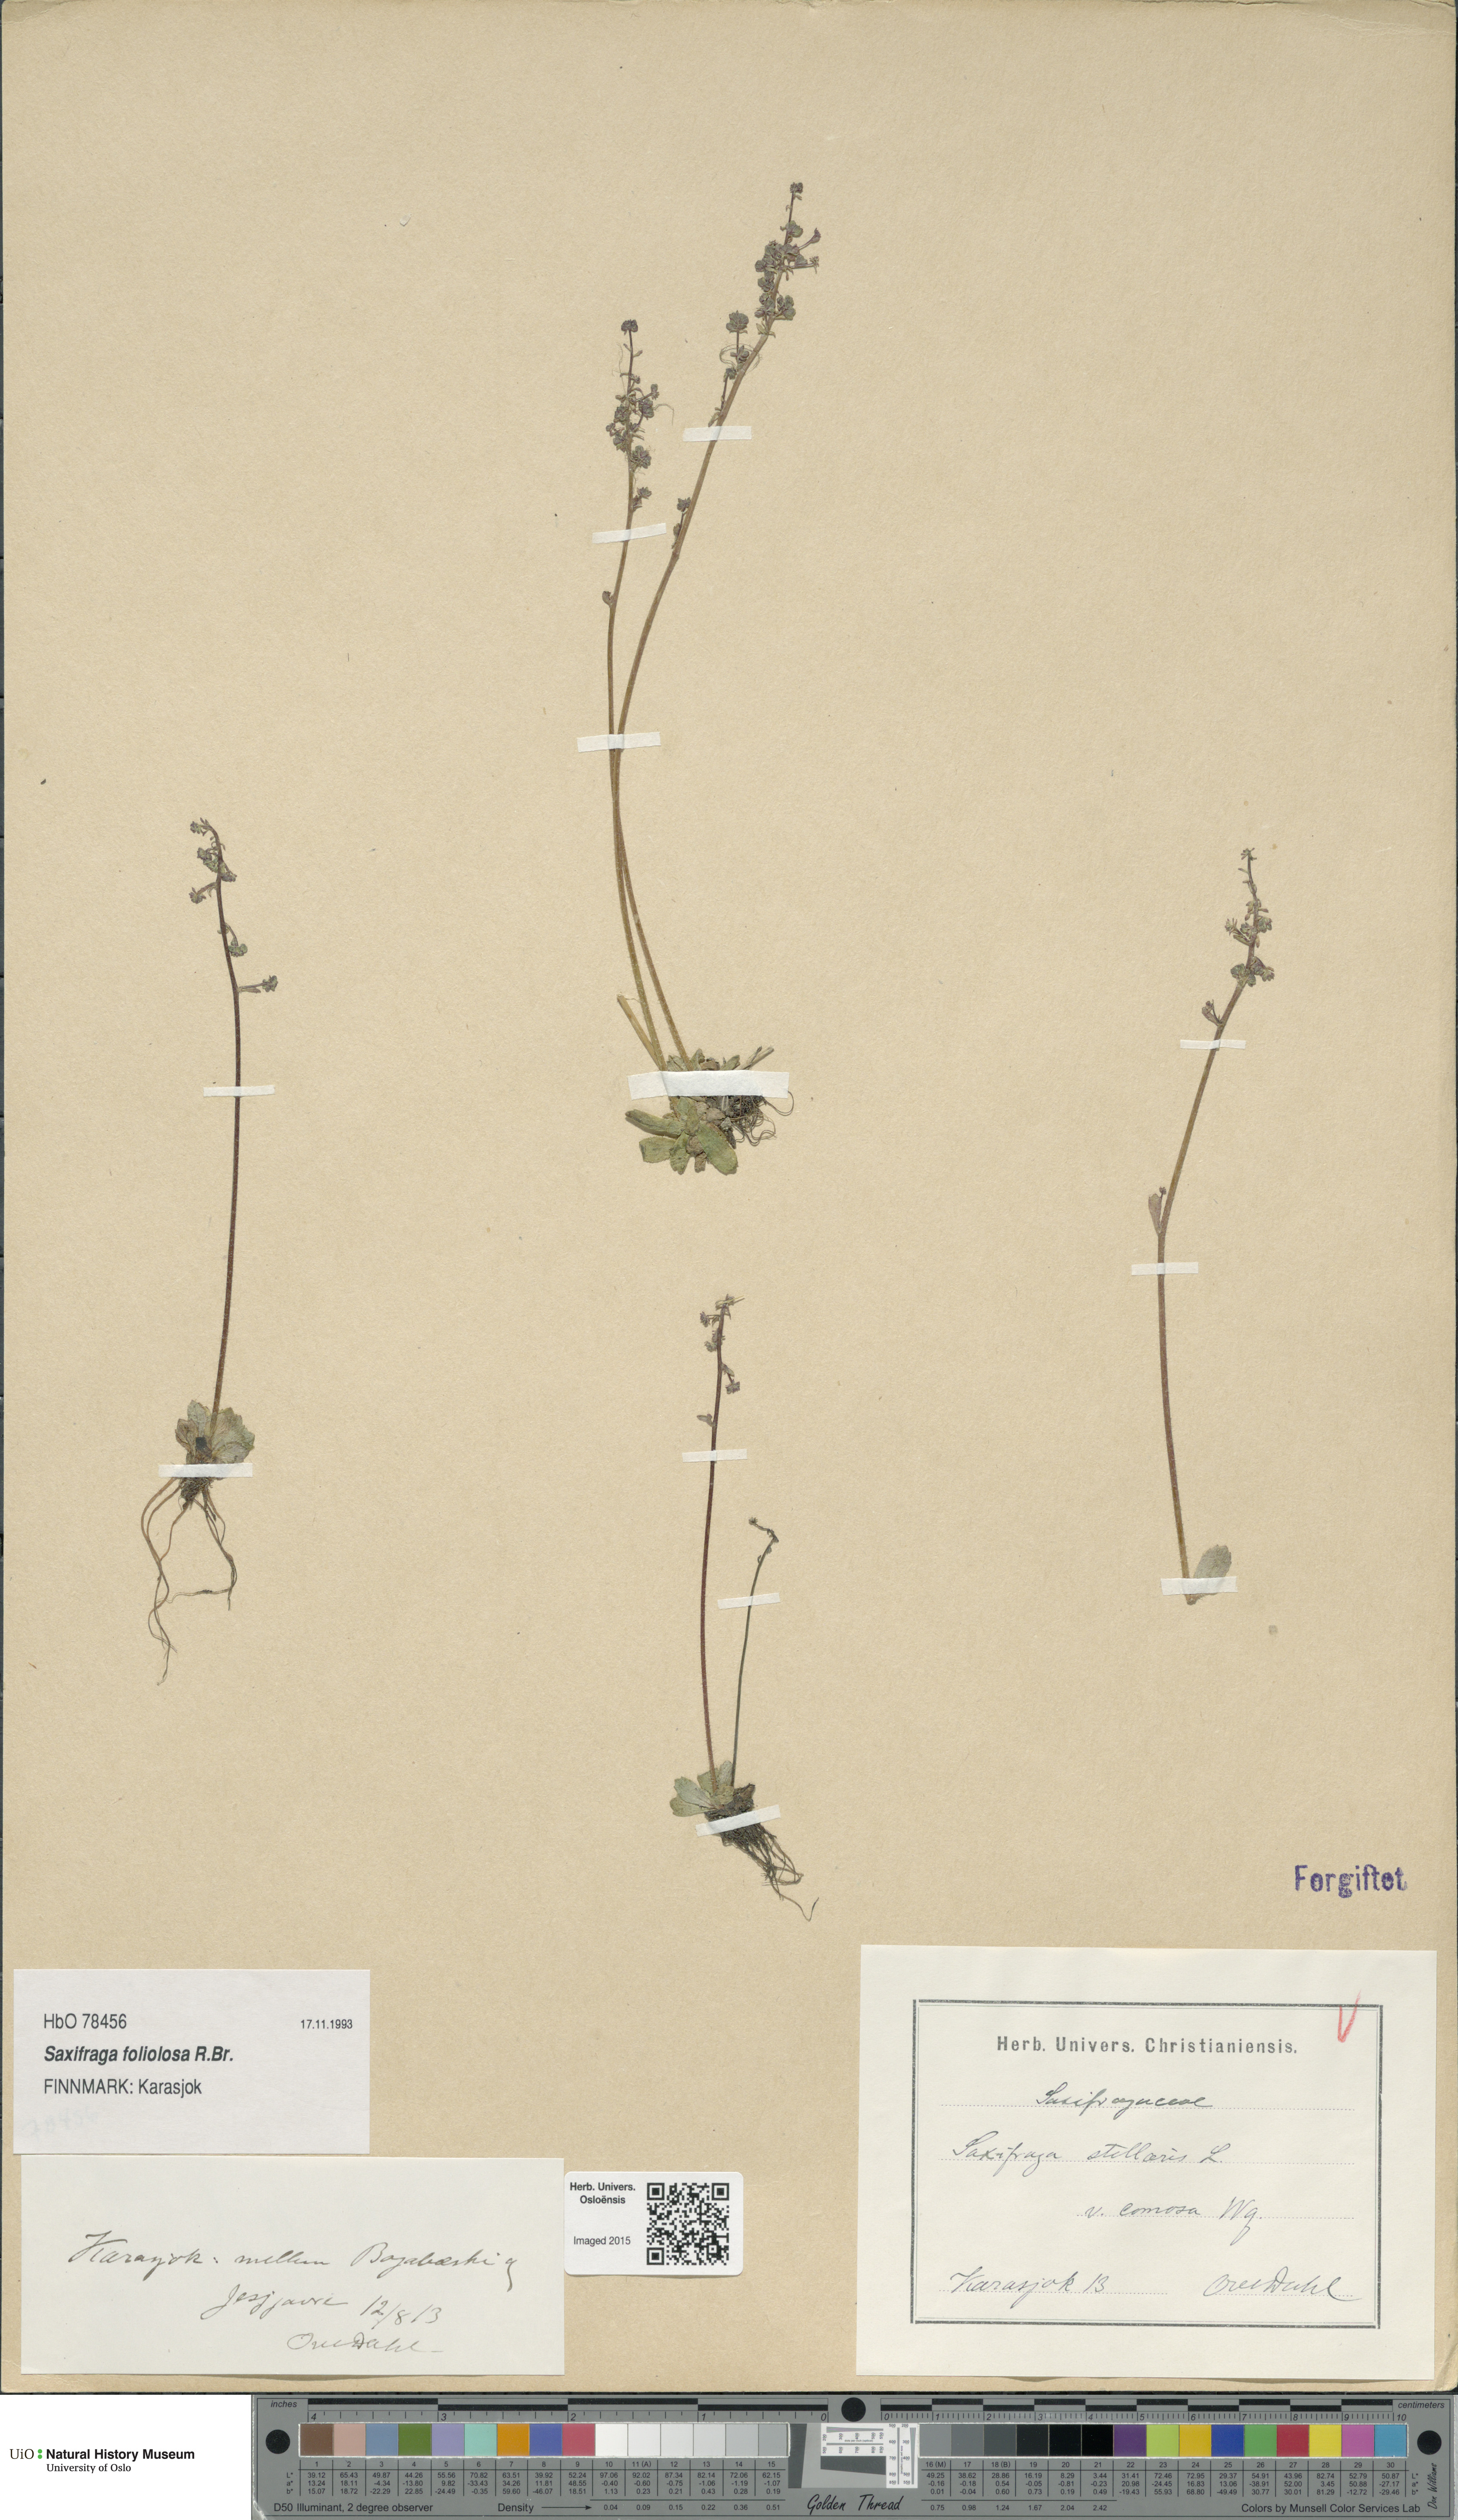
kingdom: Plantae
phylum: Tracheophyta
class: Magnoliopsida
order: Saxifragales
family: Saxifragaceae
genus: Micranthes
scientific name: Micranthes foliolosa
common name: Leafystem saxifrage
